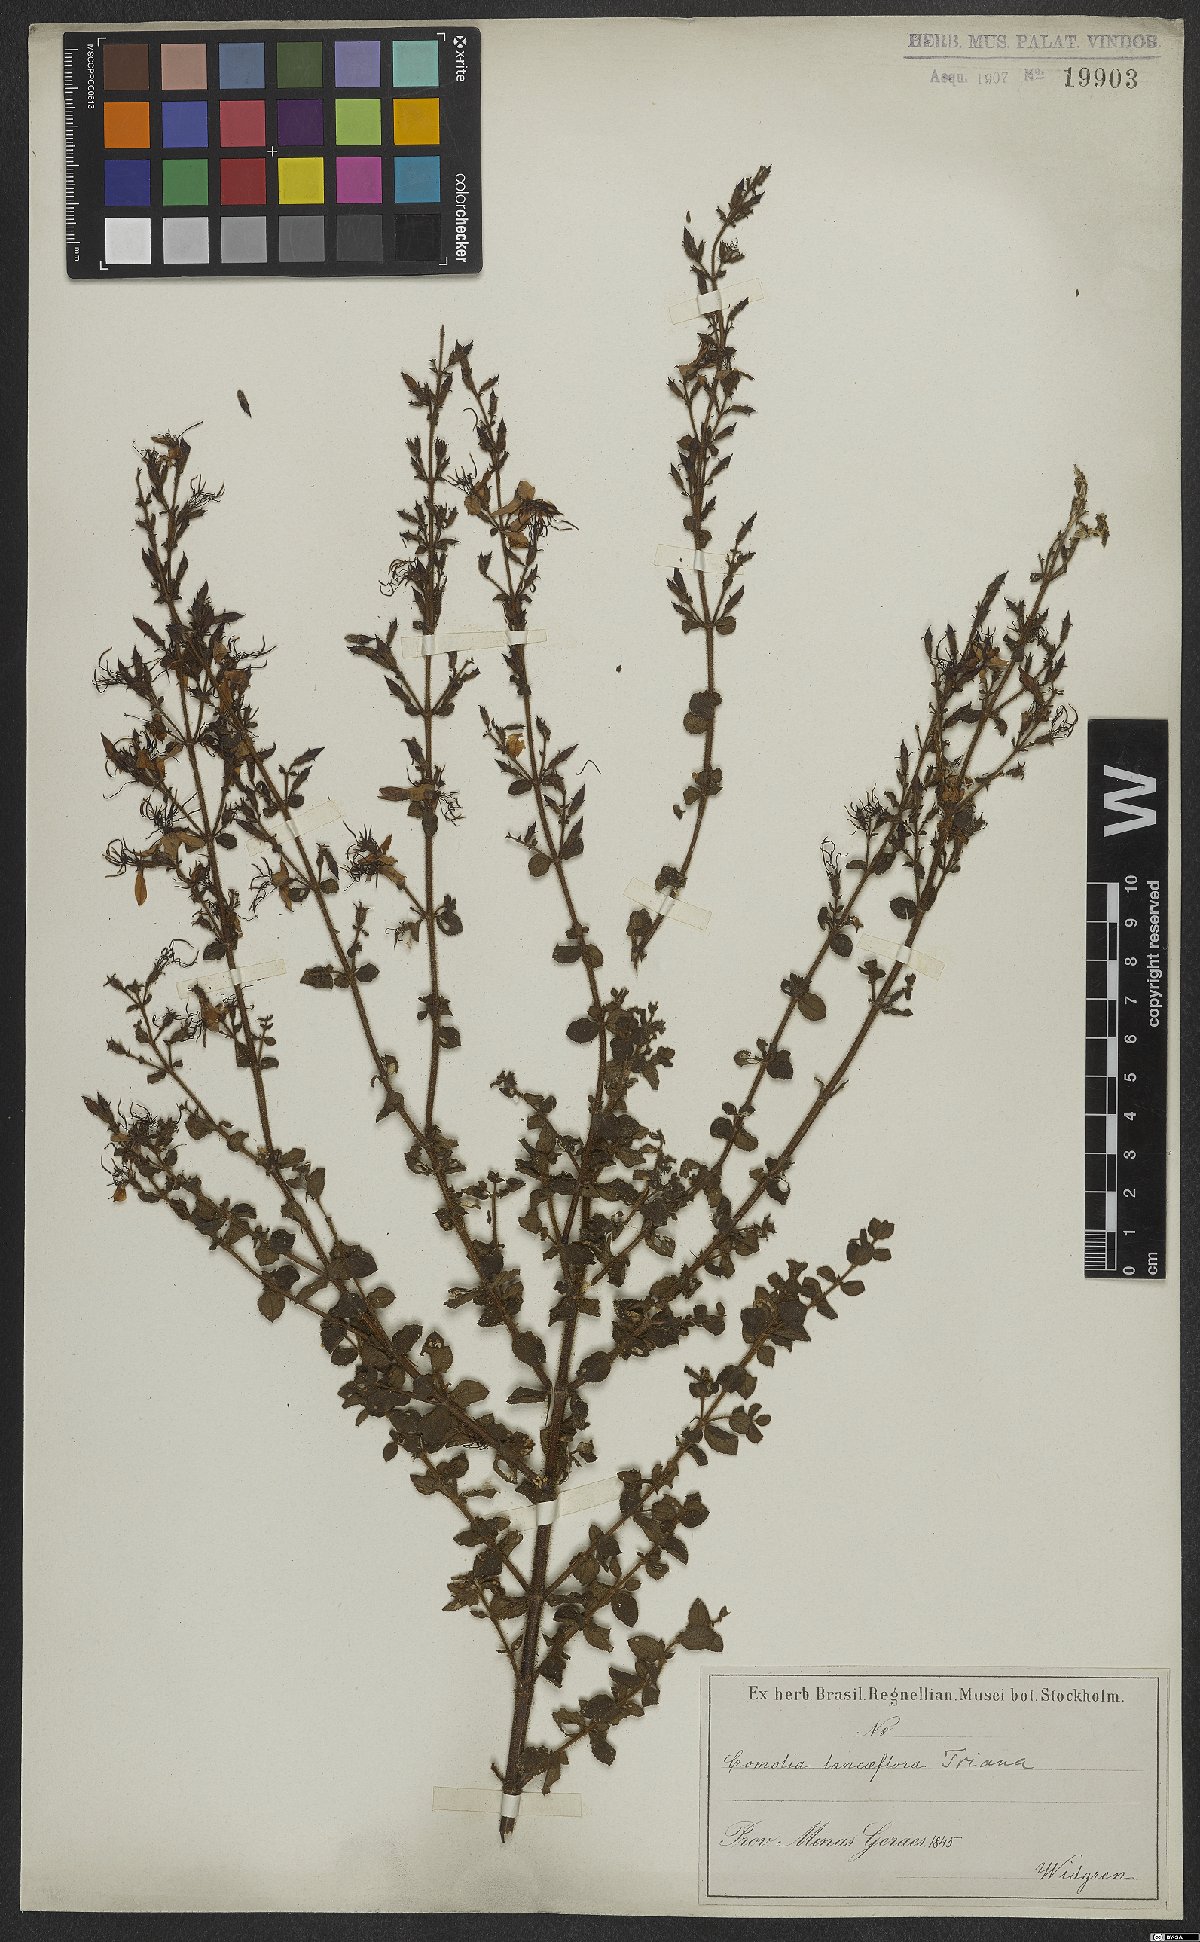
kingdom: Plantae
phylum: Tracheophyta
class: Magnoliopsida
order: Myrtales
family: Melastomataceae
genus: Fritzschia
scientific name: Fritzschia lanceiflora
